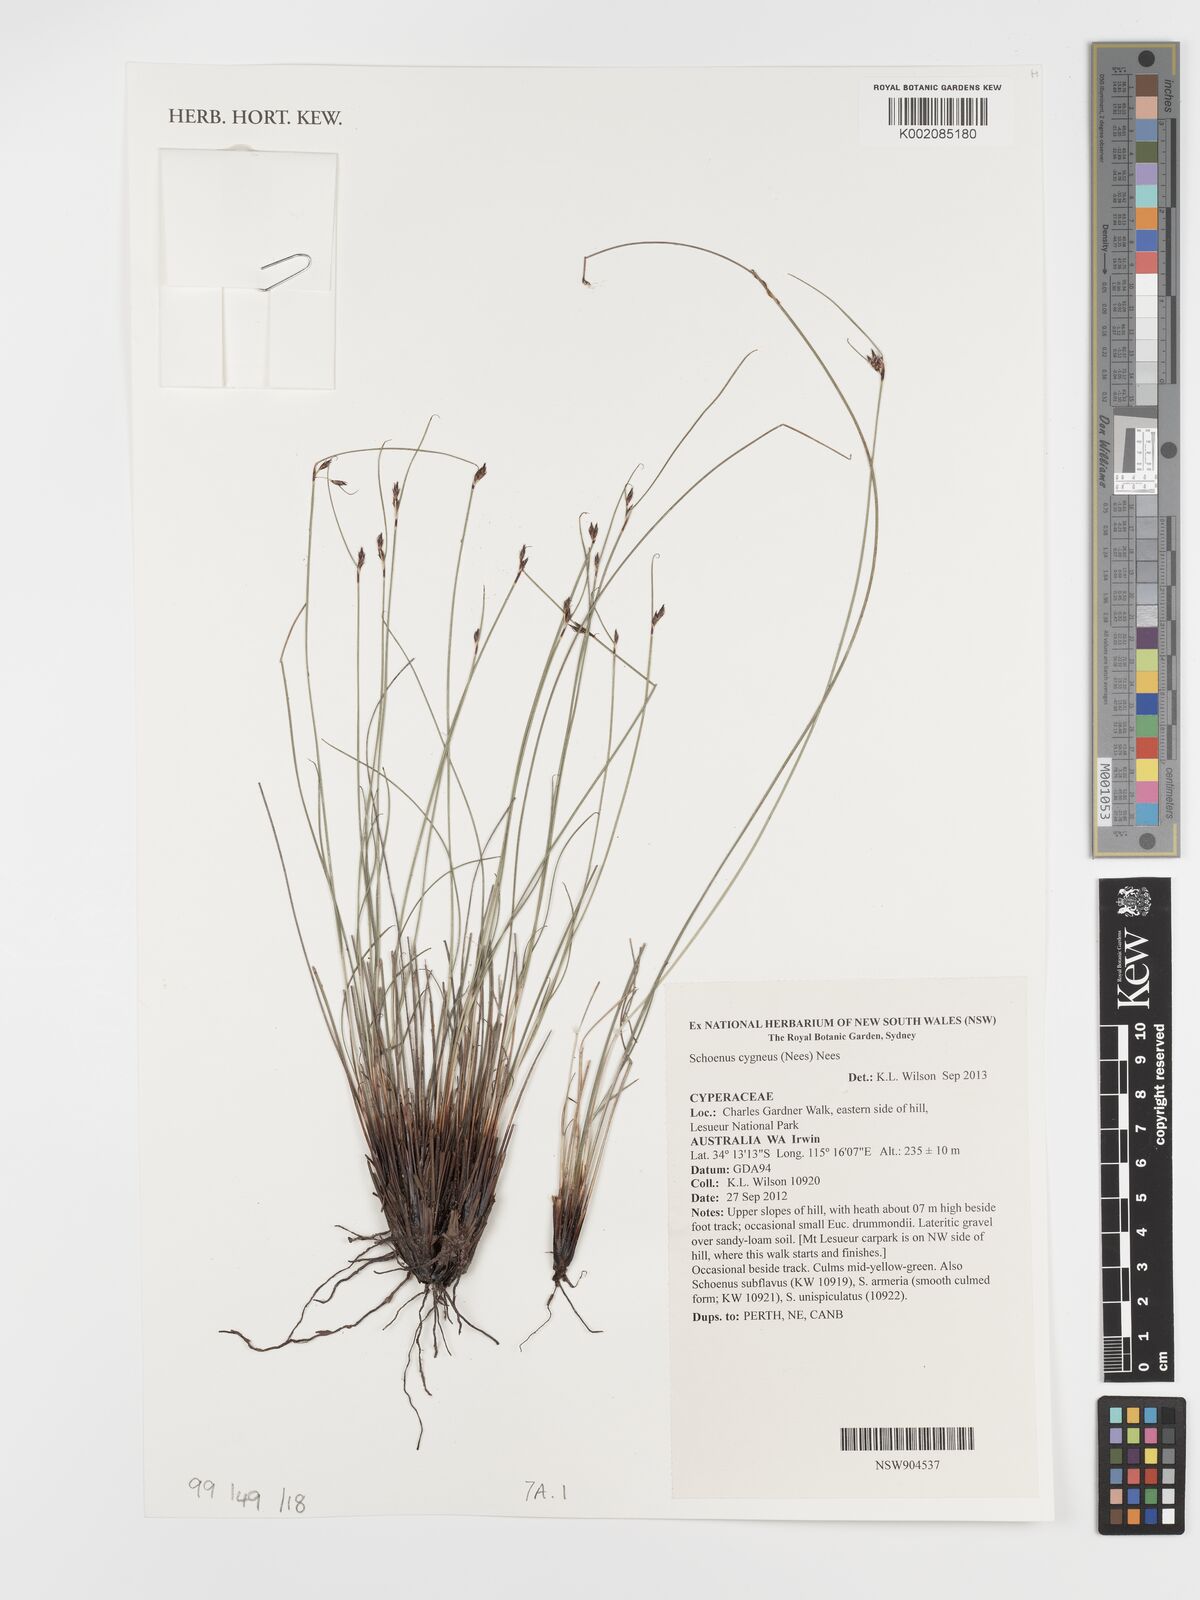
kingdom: Plantae
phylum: Tracheophyta
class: Liliopsida
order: Poales
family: Cyperaceae
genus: Schoenus
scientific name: Schoenus cygneus
